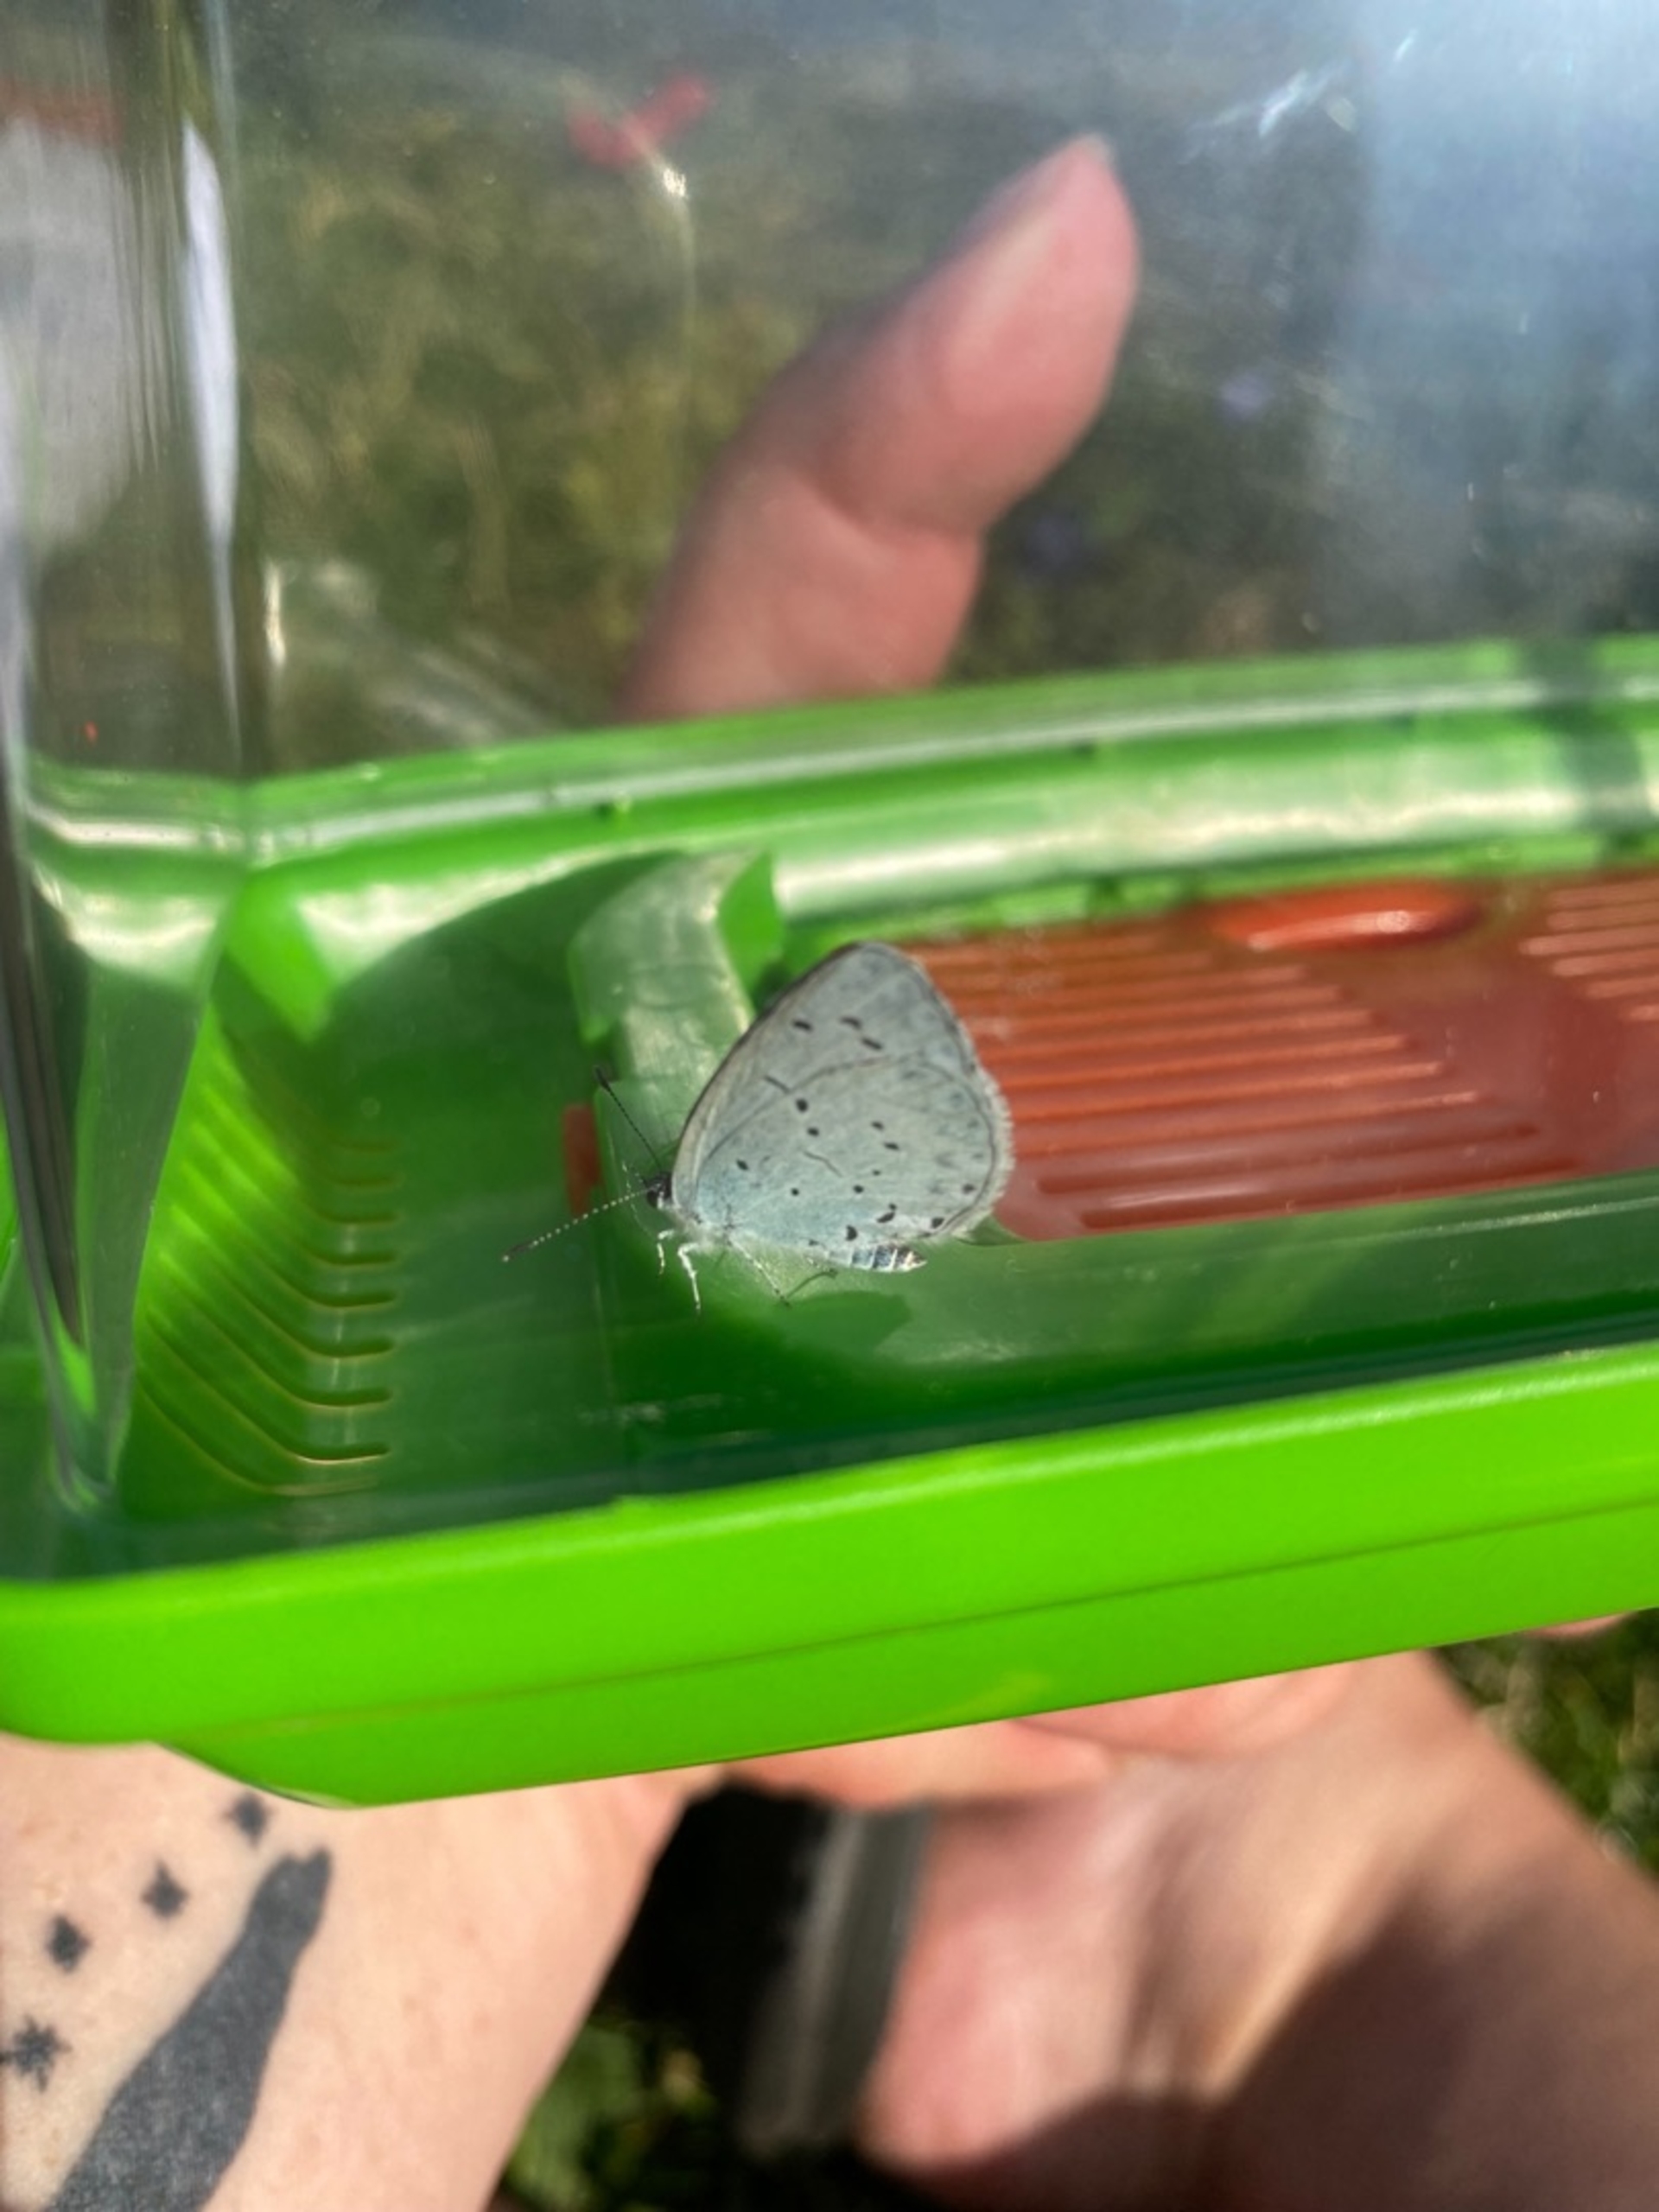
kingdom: Animalia
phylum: Arthropoda
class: Insecta
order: Lepidoptera
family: Lycaenidae
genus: Celastrina
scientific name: Celastrina argiolus
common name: Skovblåfugl
